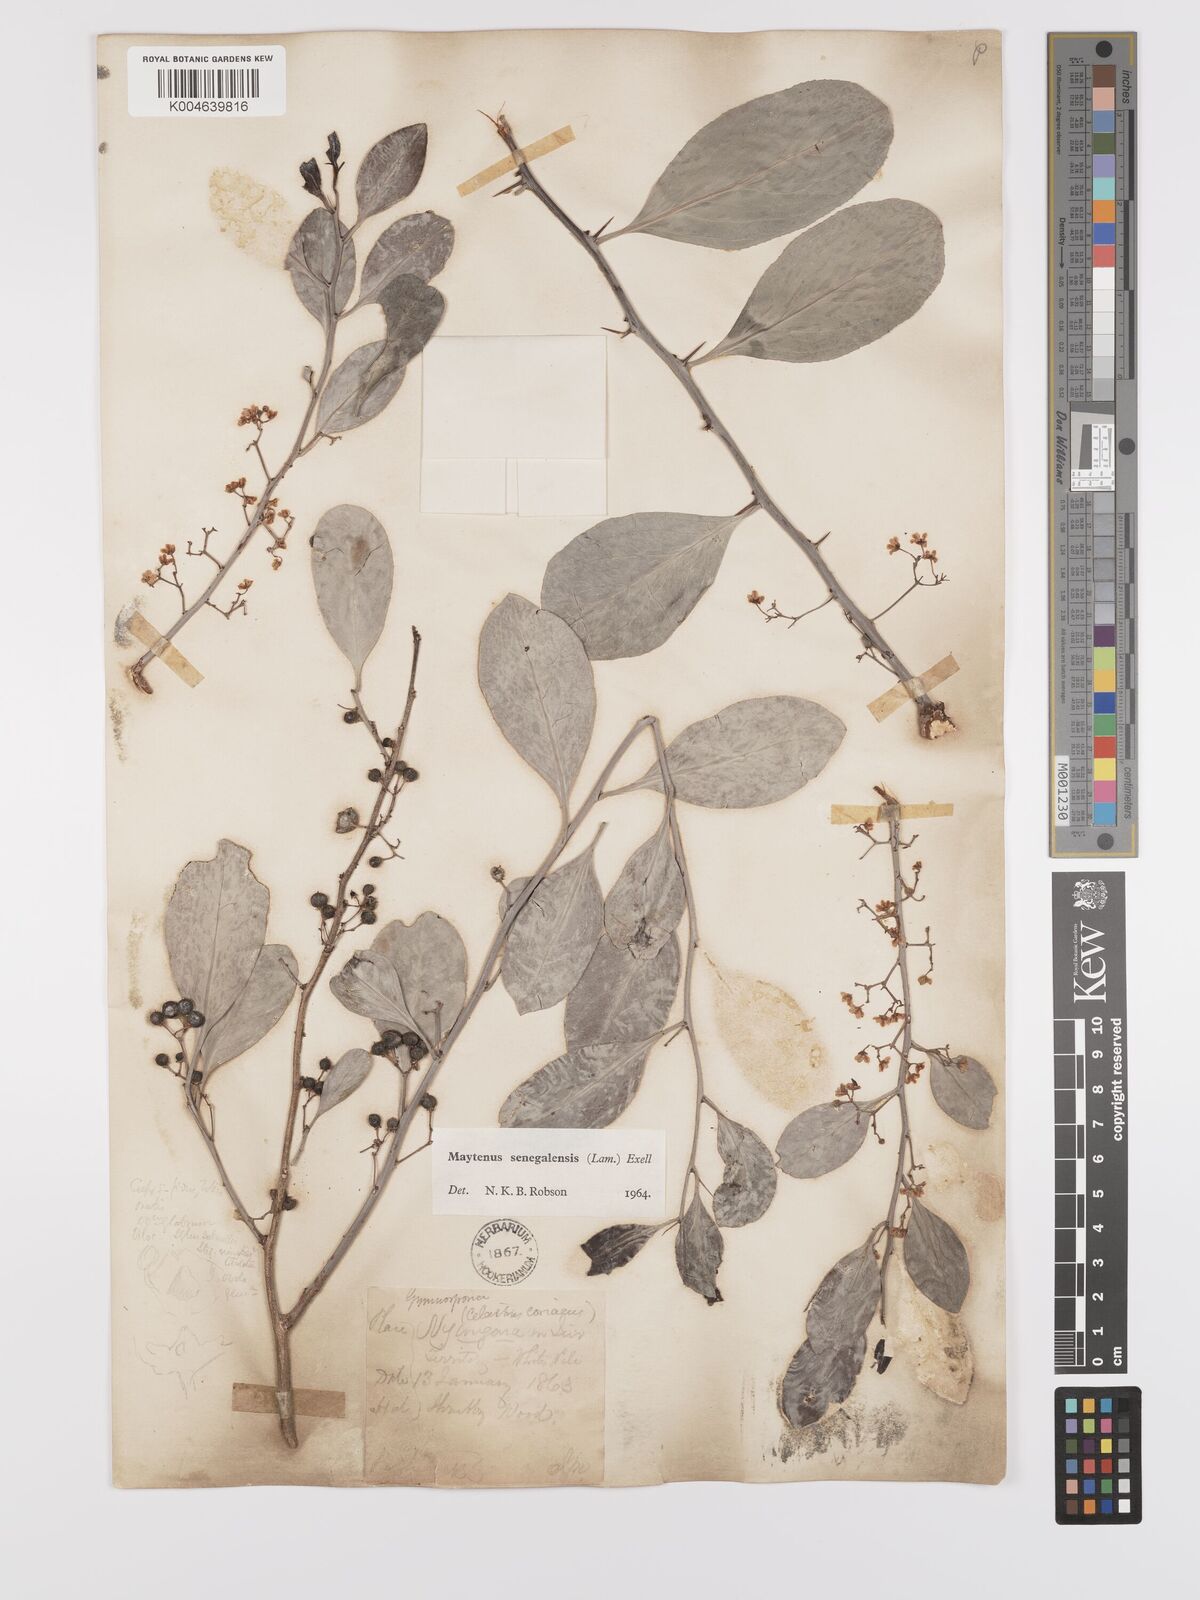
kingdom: Plantae
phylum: Tracheophyta
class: Magnoliopsida
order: Celastrales
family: Celastraceae
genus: Gymnosporia
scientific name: Gymnosporia senegalensis
